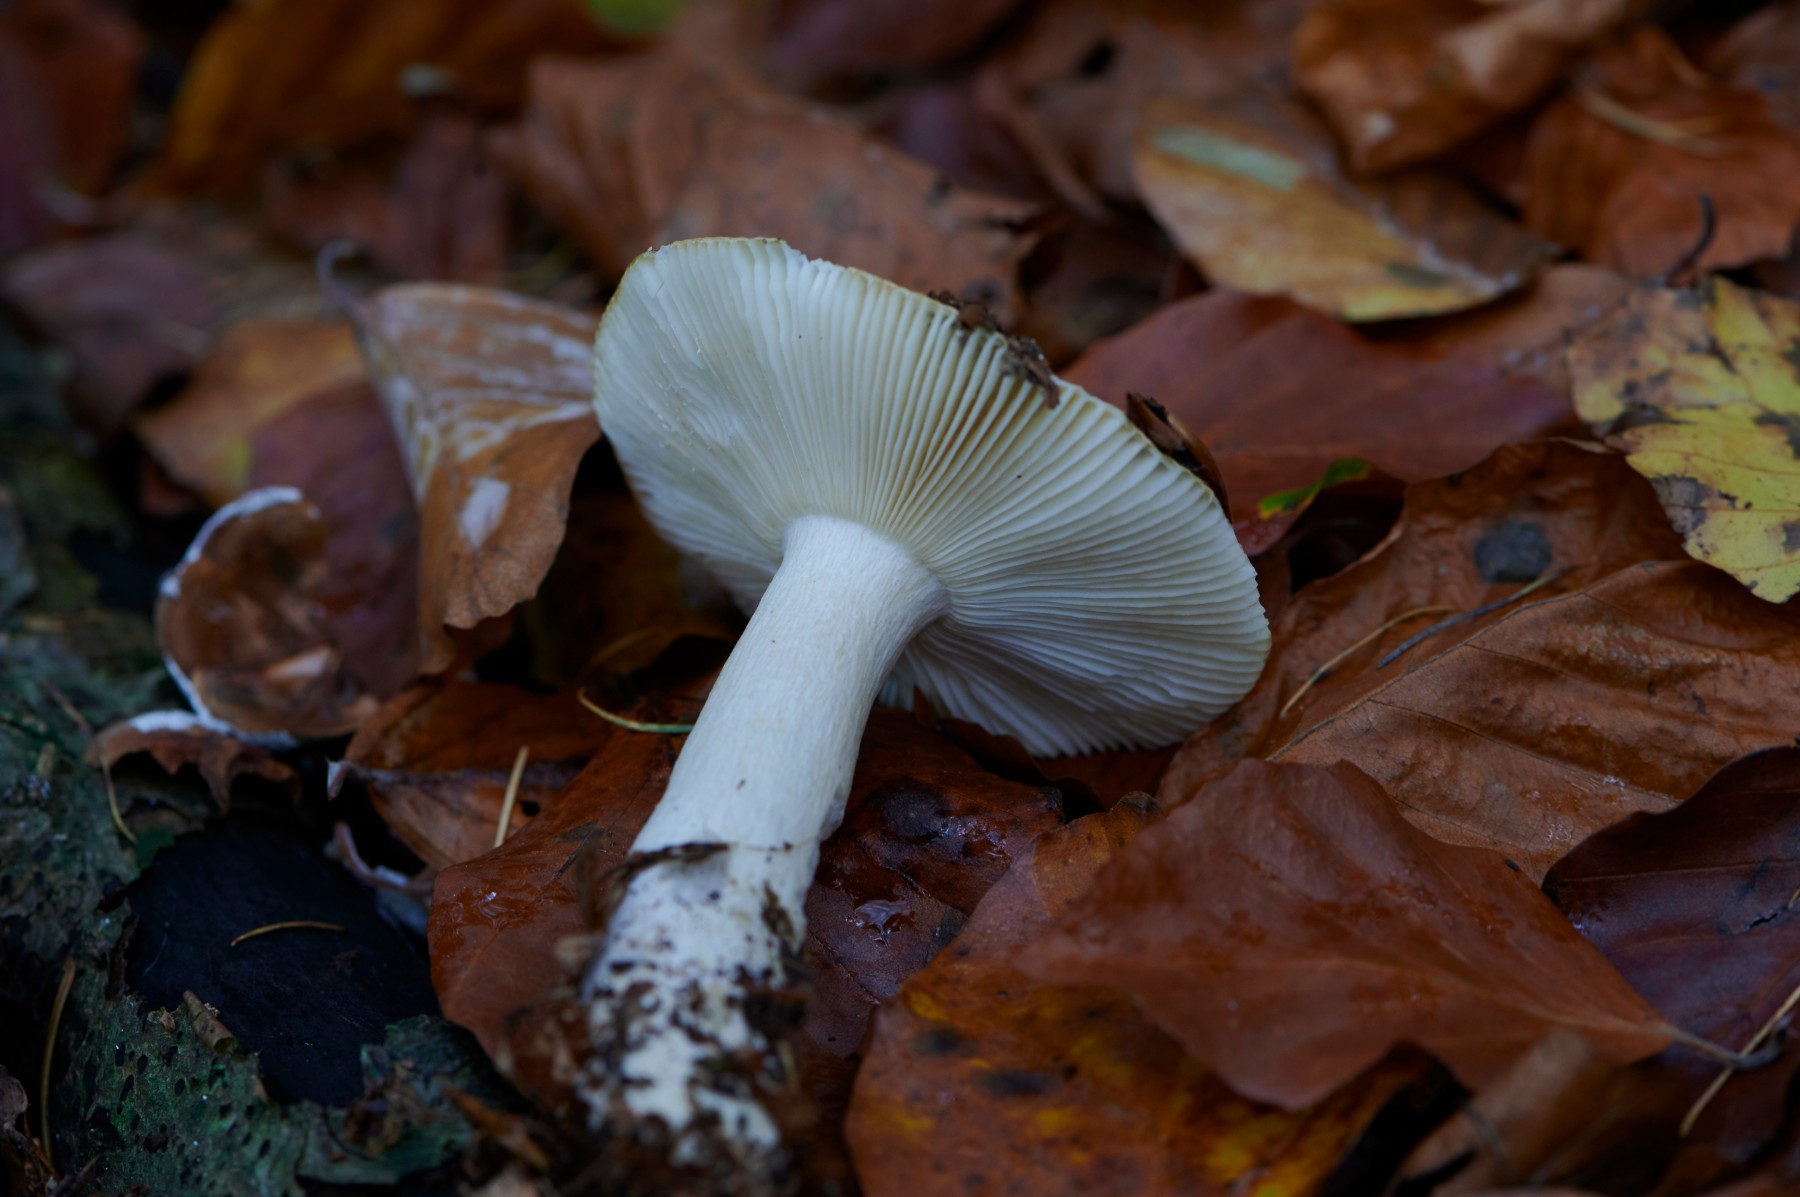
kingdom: Fungi
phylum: Basidiomycota
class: Agaricomycetes
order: Russulales
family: Russulaceae
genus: Russula
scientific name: Russula ochroleuca
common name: okkergul skørhat
